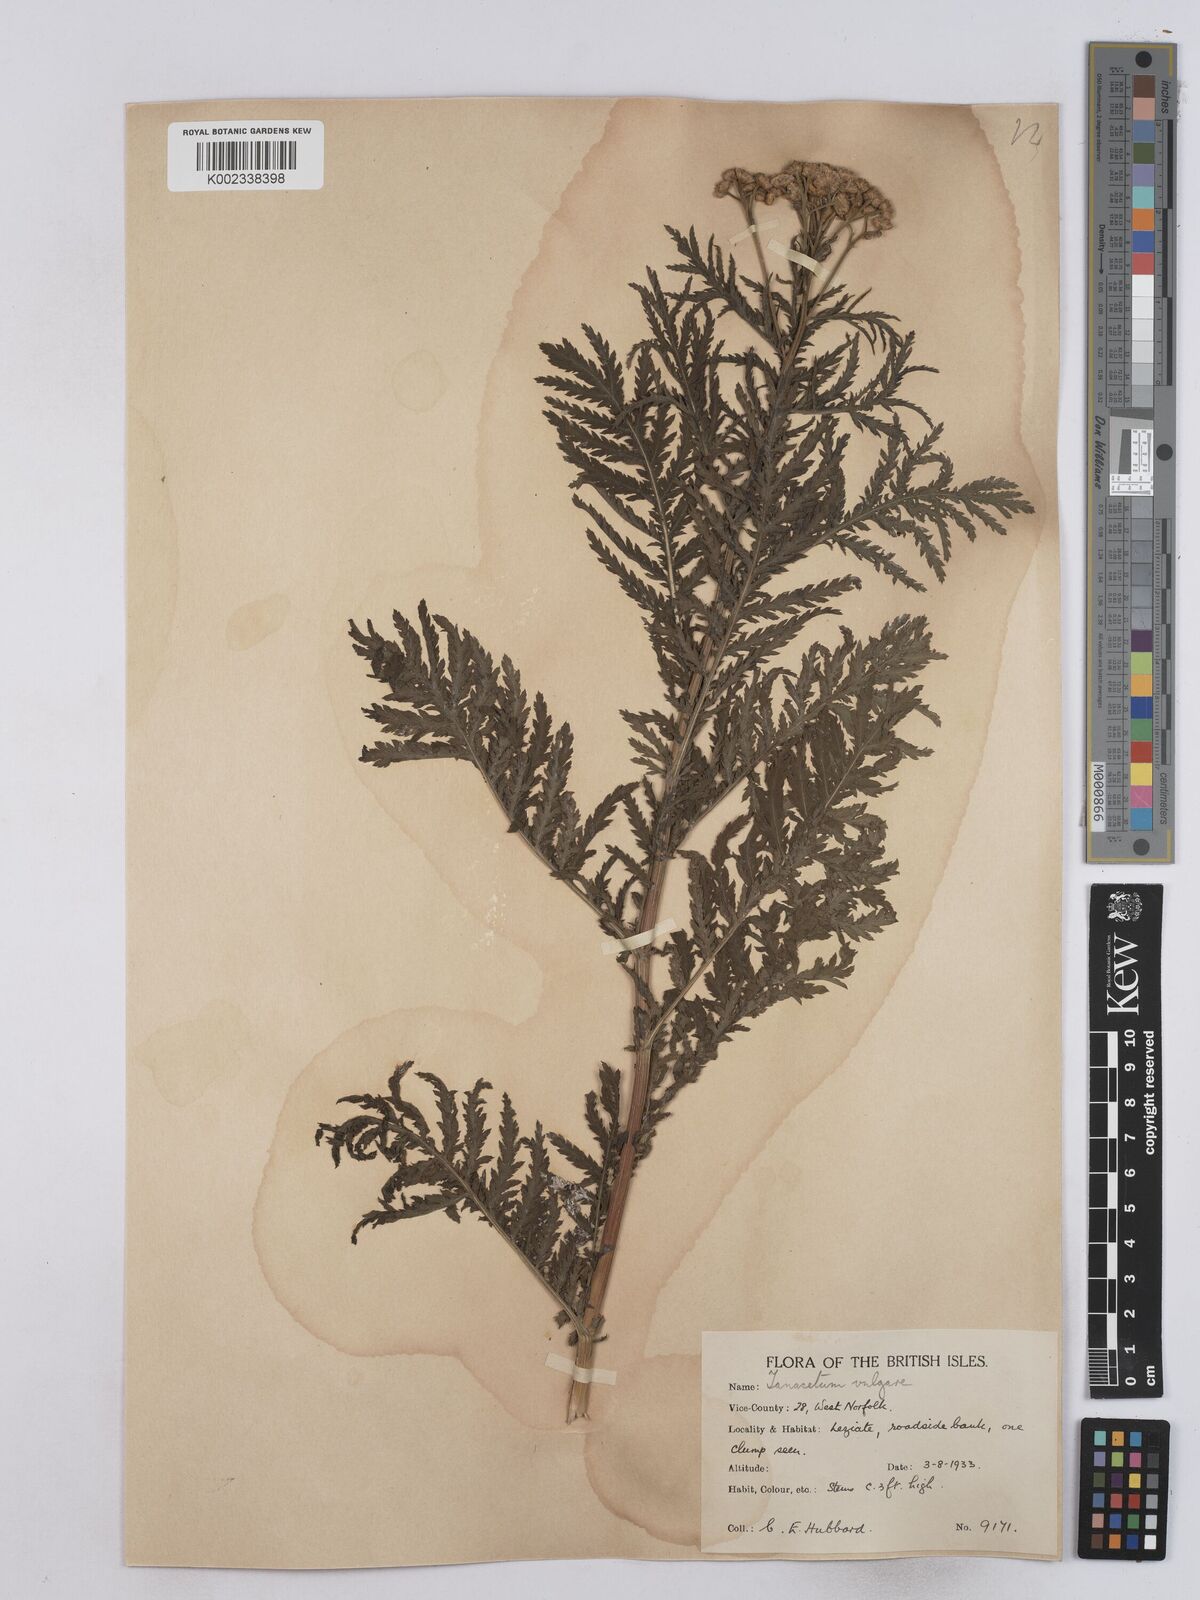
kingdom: Plantae
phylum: Tracheophyta
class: Magnoliopsida
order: Asterales
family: Asteraceae
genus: Tanacetum
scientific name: Tanacetum vulgare
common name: Common tansy
